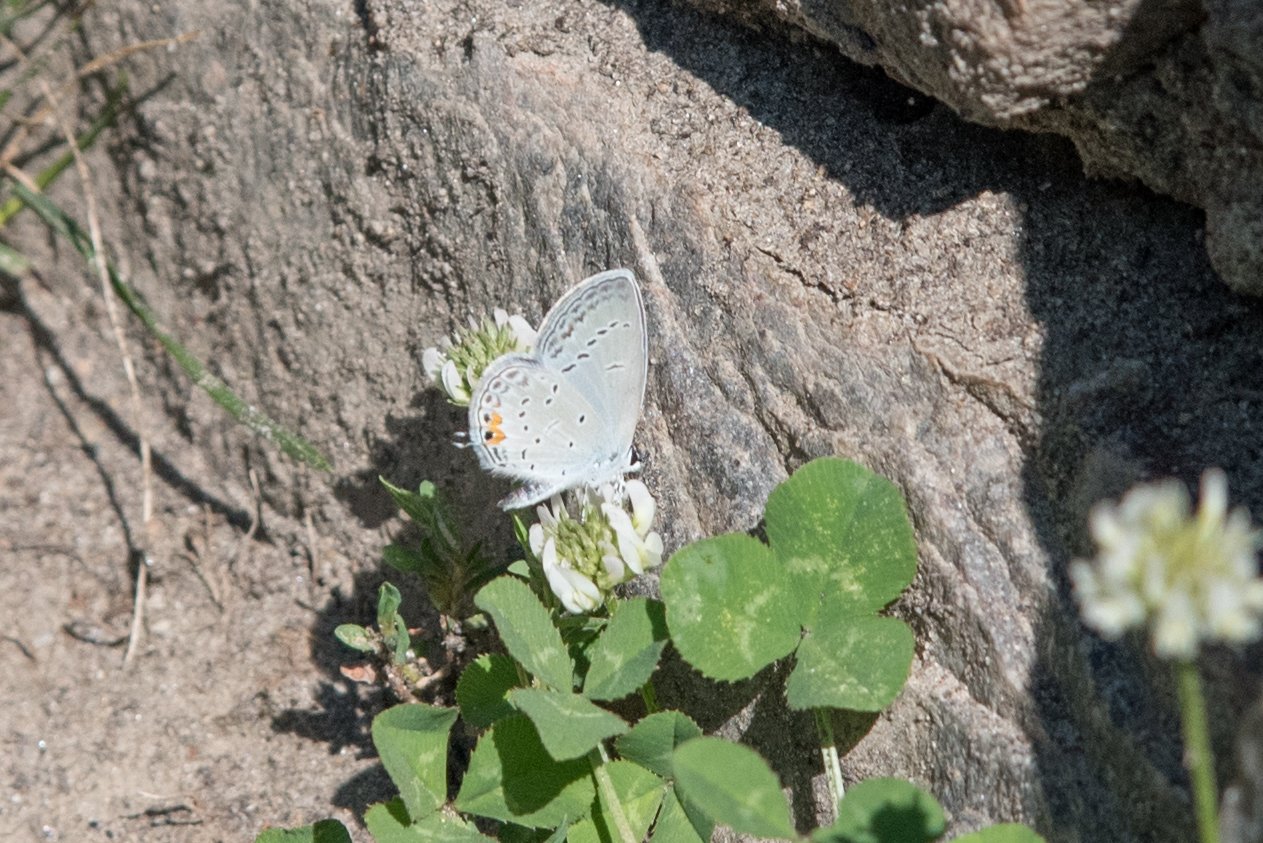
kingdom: Animalia
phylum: Arthropoda
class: Insecta
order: Lepidoptera
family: Lycaenidae
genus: Elkalyce
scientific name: Elkalyce comyntas
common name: Eastern Tailed-Blue
